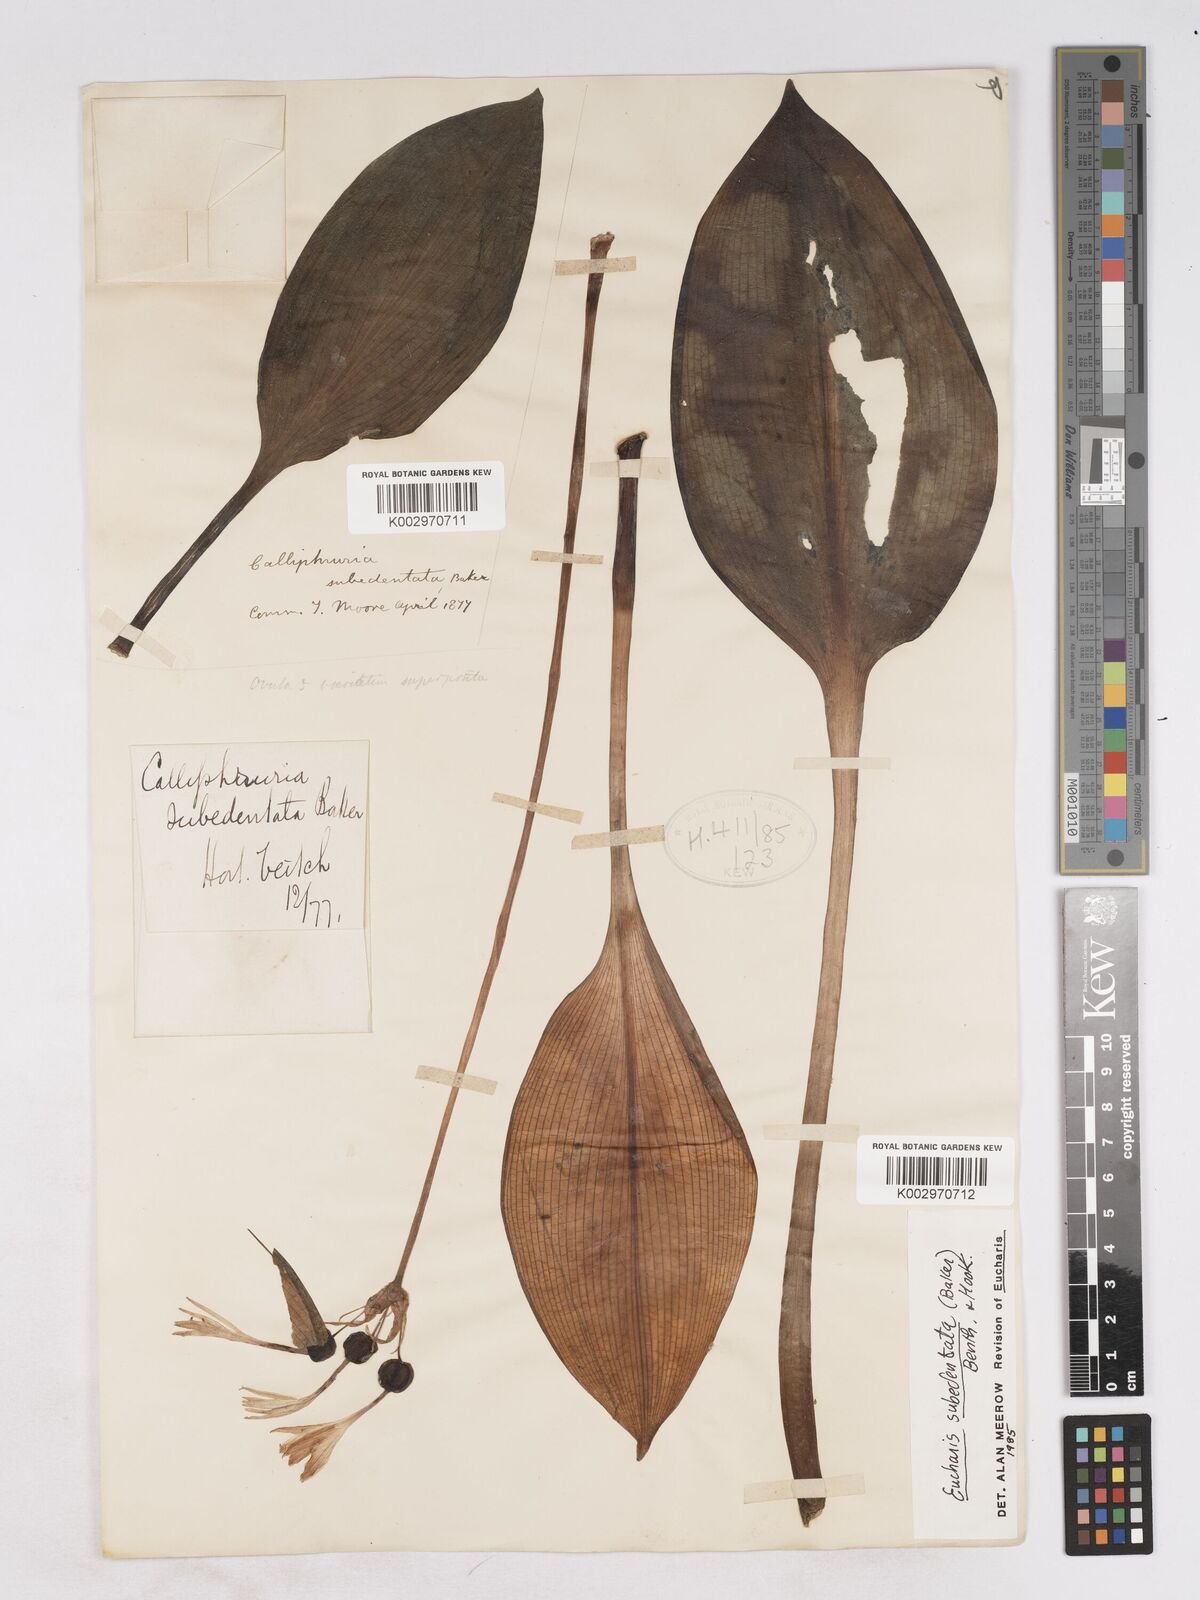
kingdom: Plantae
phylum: Tracheophyta
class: Liliopsida
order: Asparagales
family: Amaryllidaceae
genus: Urceolina
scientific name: Urceolina subedentata
